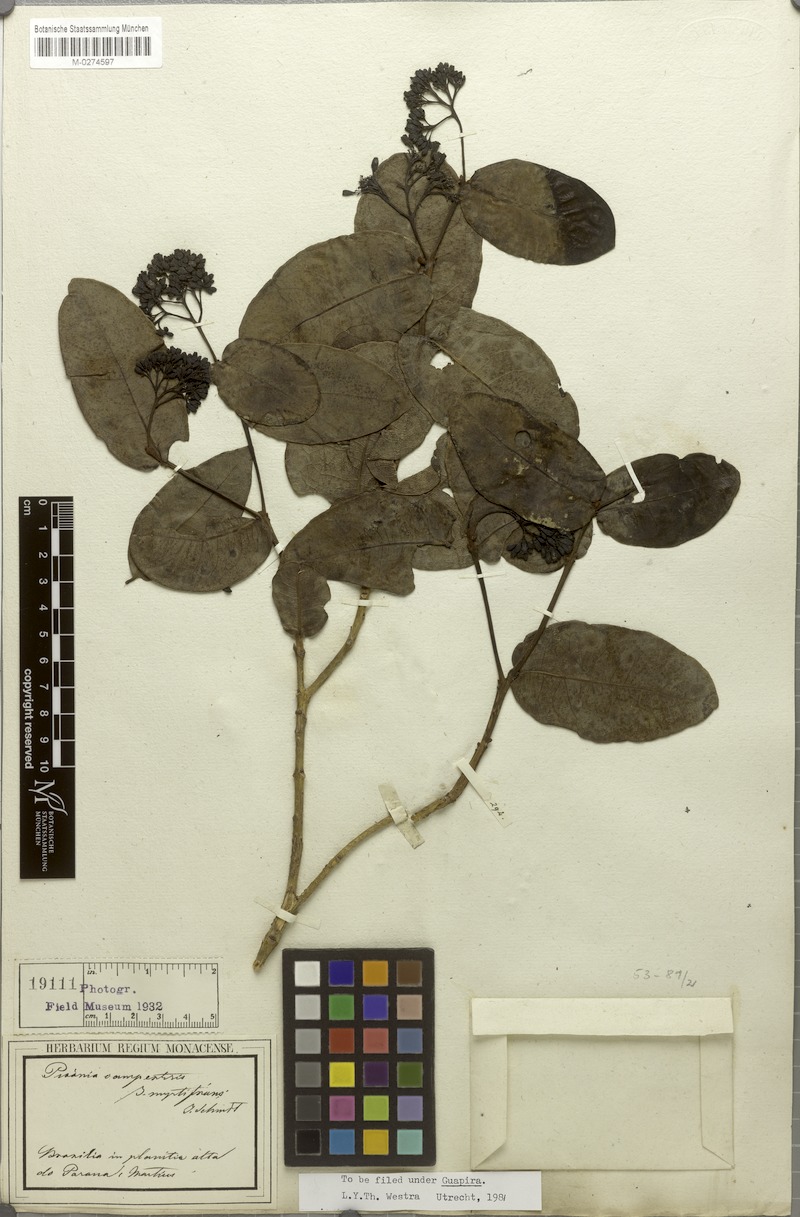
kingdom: Plantae
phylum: Tracheophyta
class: Magnoliopsida
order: Caryophyllales
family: Nyctaginaceae
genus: Guapira
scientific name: Guapira campestris
